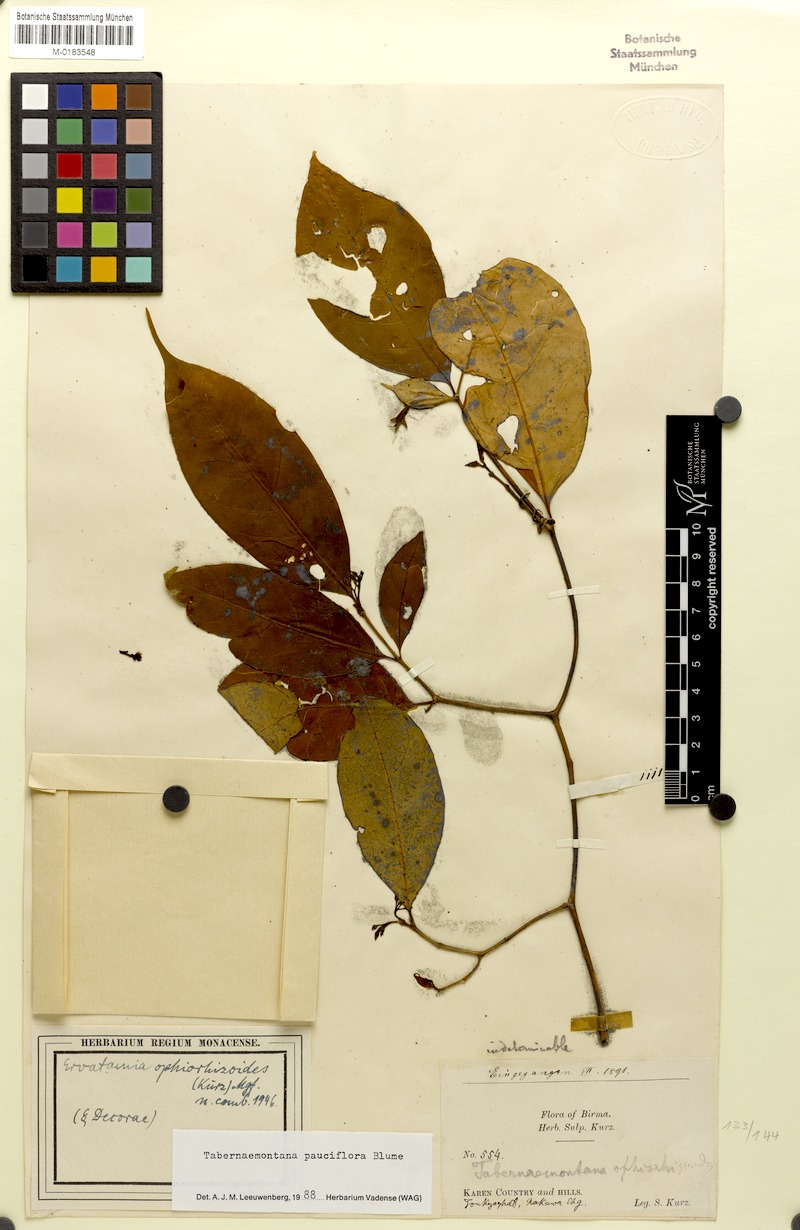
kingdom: Plantae
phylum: Tracheophyta
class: Magnoliopsida
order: Gentianales
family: Apocynaceae
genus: Tabernaemontana
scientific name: Tabernaemontana pauciflora
